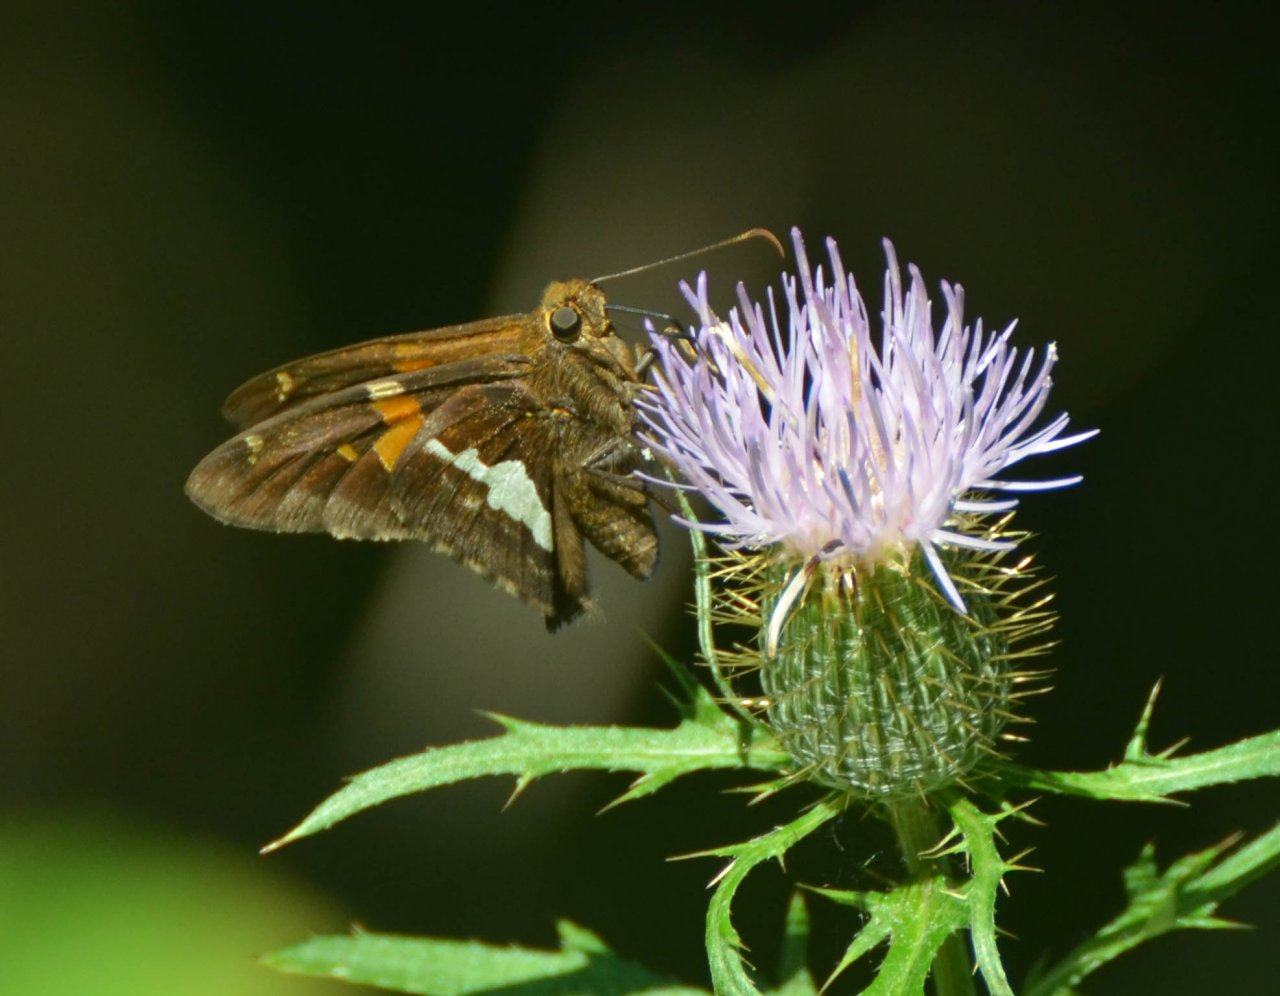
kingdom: Animalia
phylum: Arthropoda
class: Insecta
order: Lepidoptera
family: Hesperiidae
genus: Epargyreus
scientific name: Epargyreus clarus
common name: Silver-spotted Skipper
